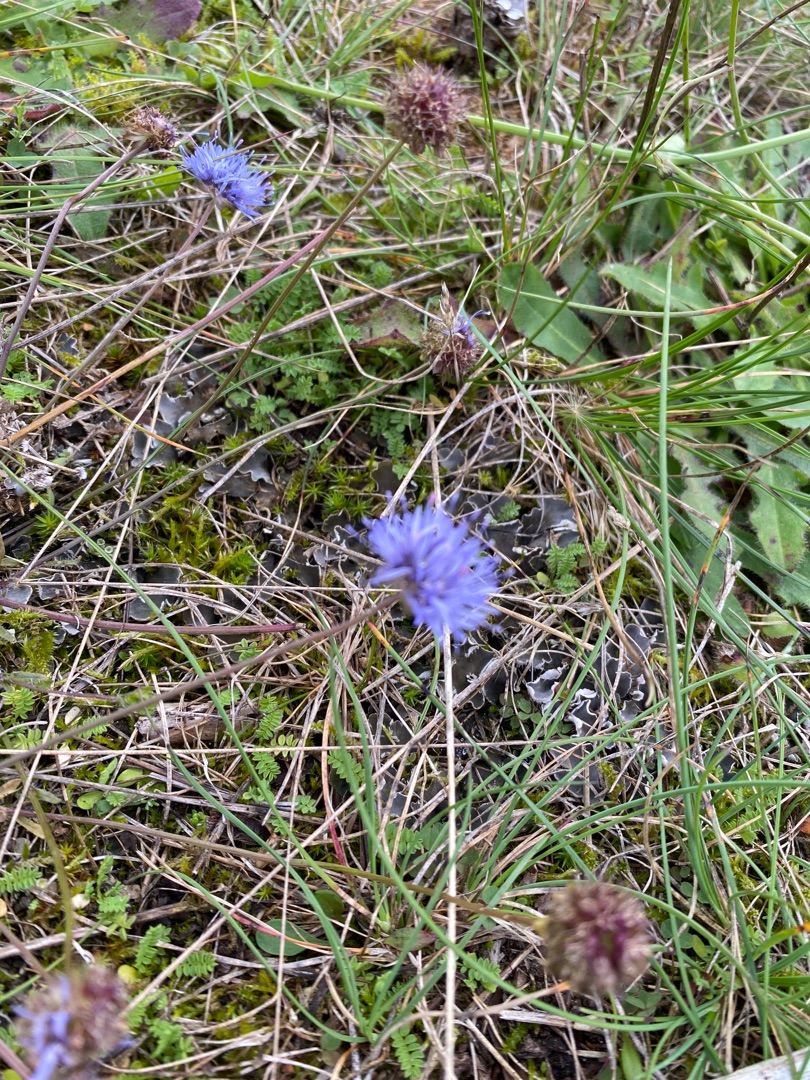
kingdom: Plantae
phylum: Tracheophyta
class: Magnoliopsida
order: Asterales
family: Campanulaceae
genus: Jasione
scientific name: Jasione montana
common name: Blåmunke
